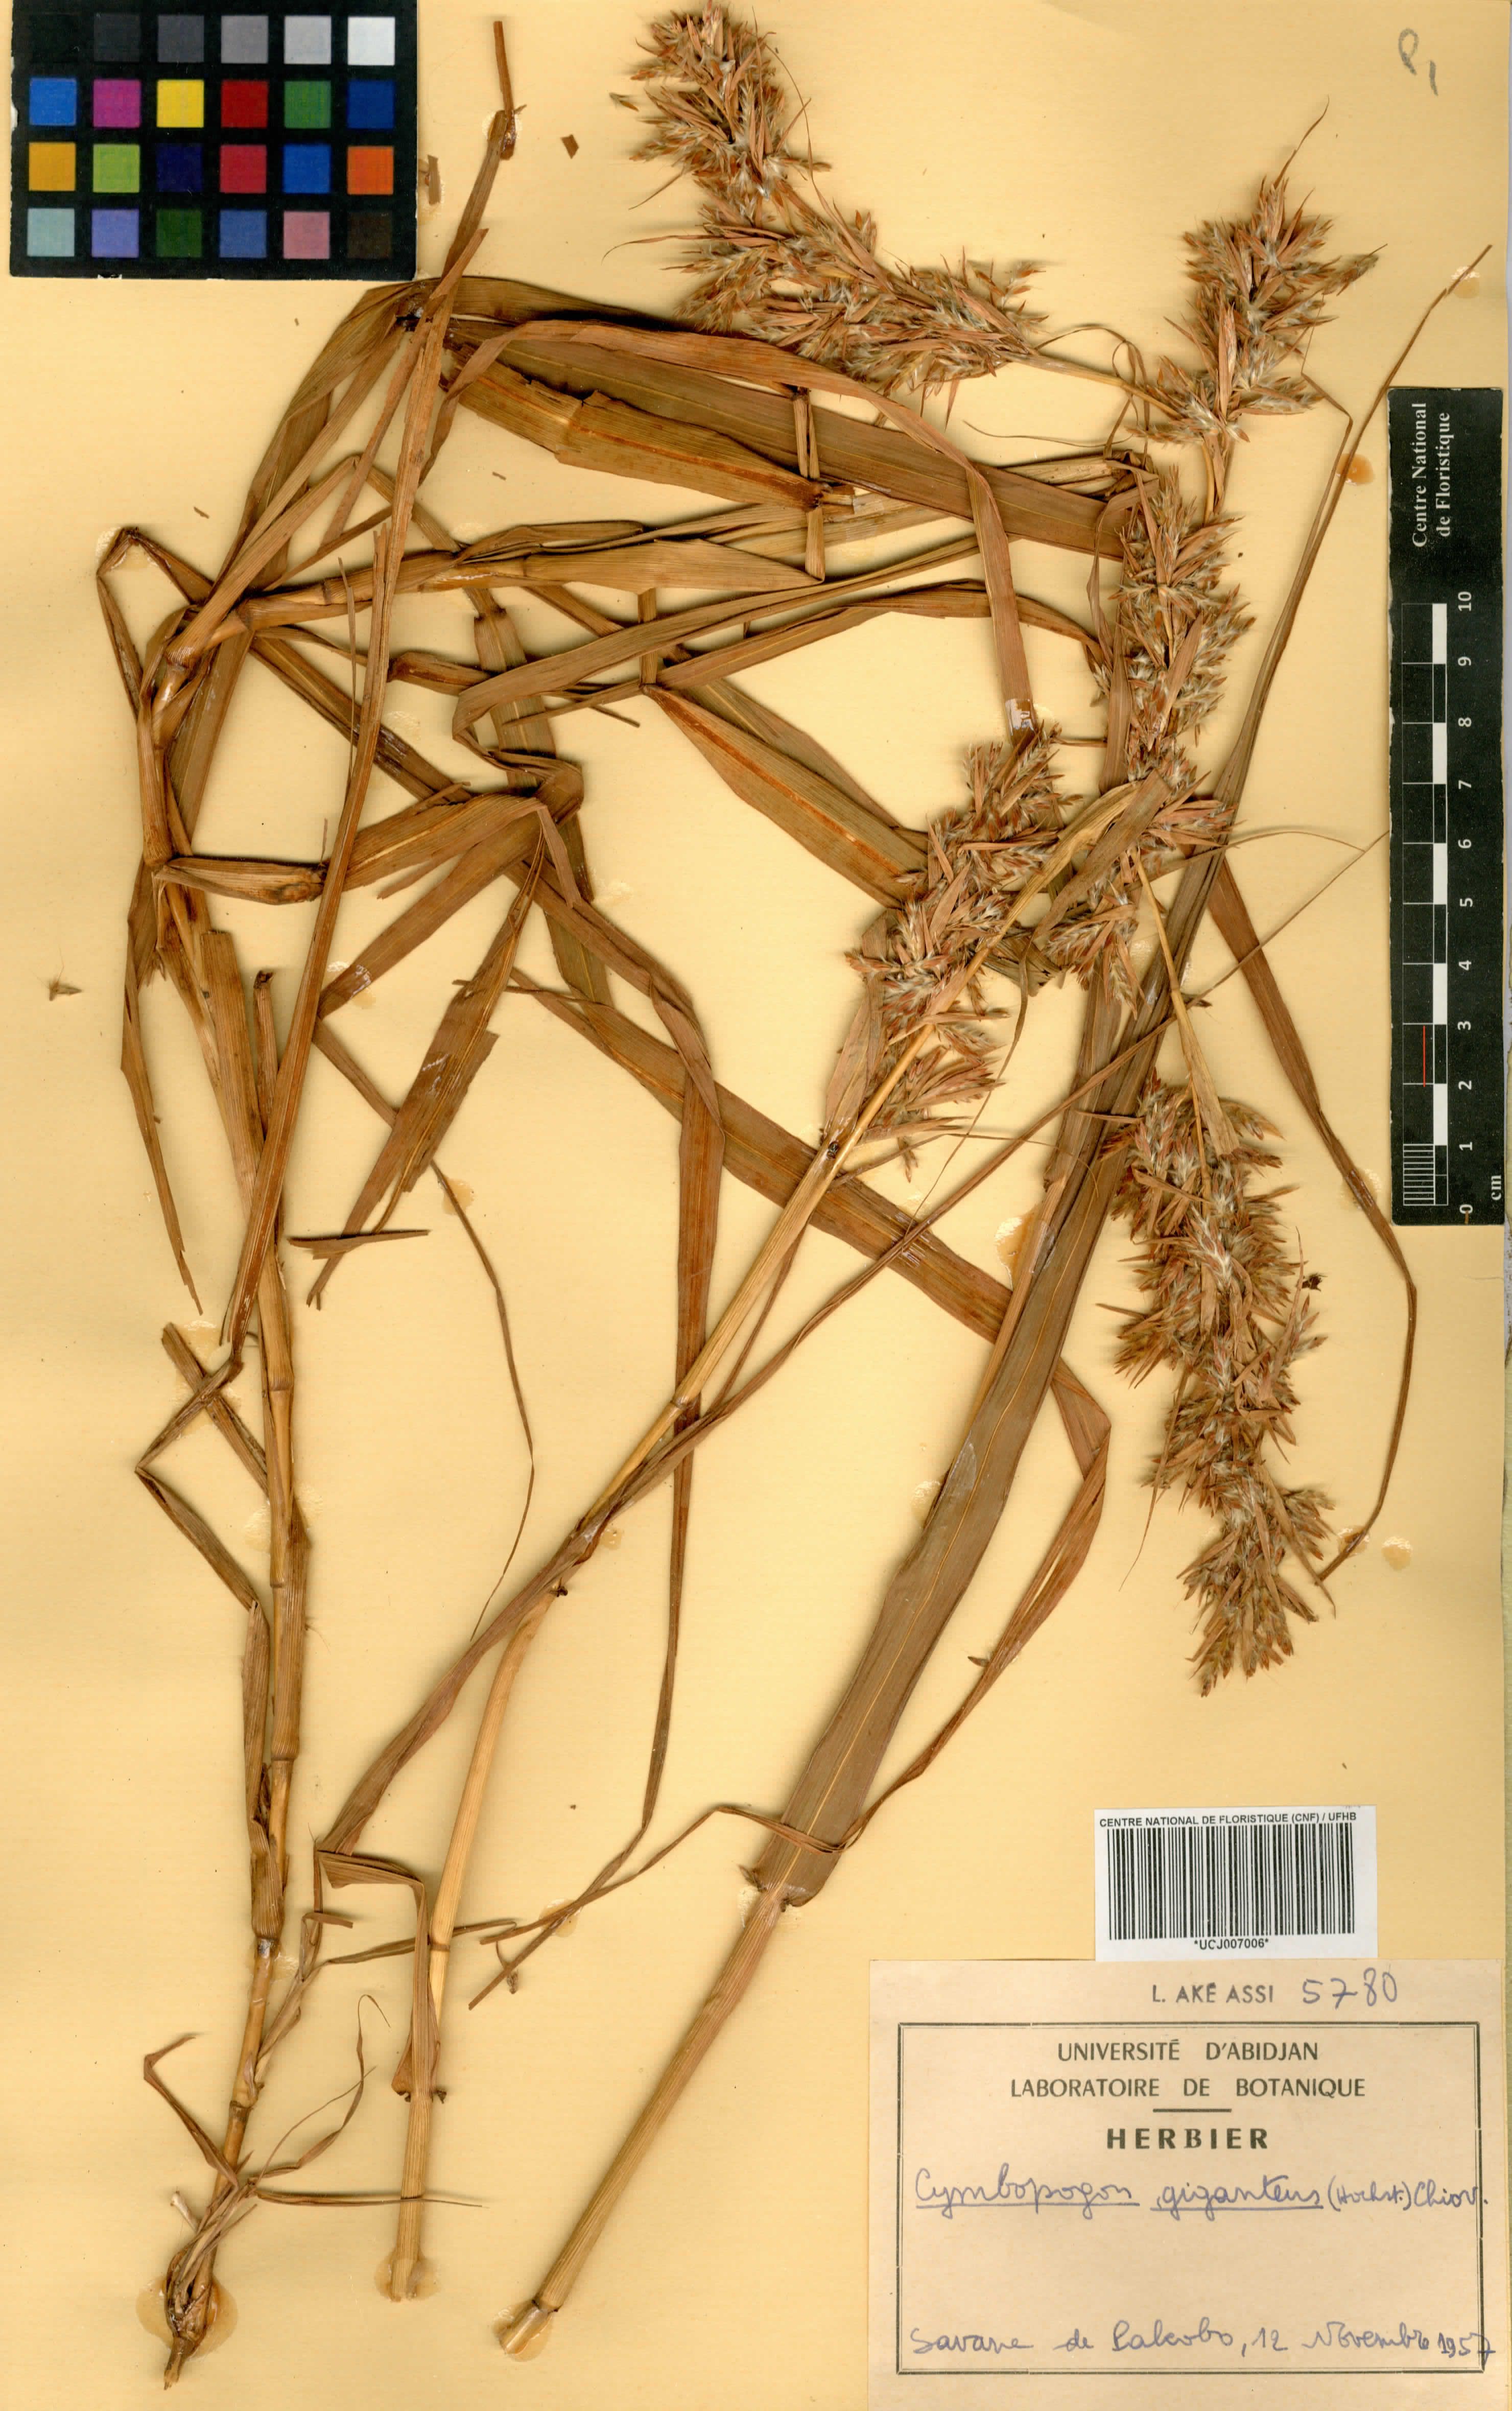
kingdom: Plantae
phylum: Tracheophyta
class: Liliopsida
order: Poales
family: Poaceae
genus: Cymbopogon
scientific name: Cymbopogon giganteus
